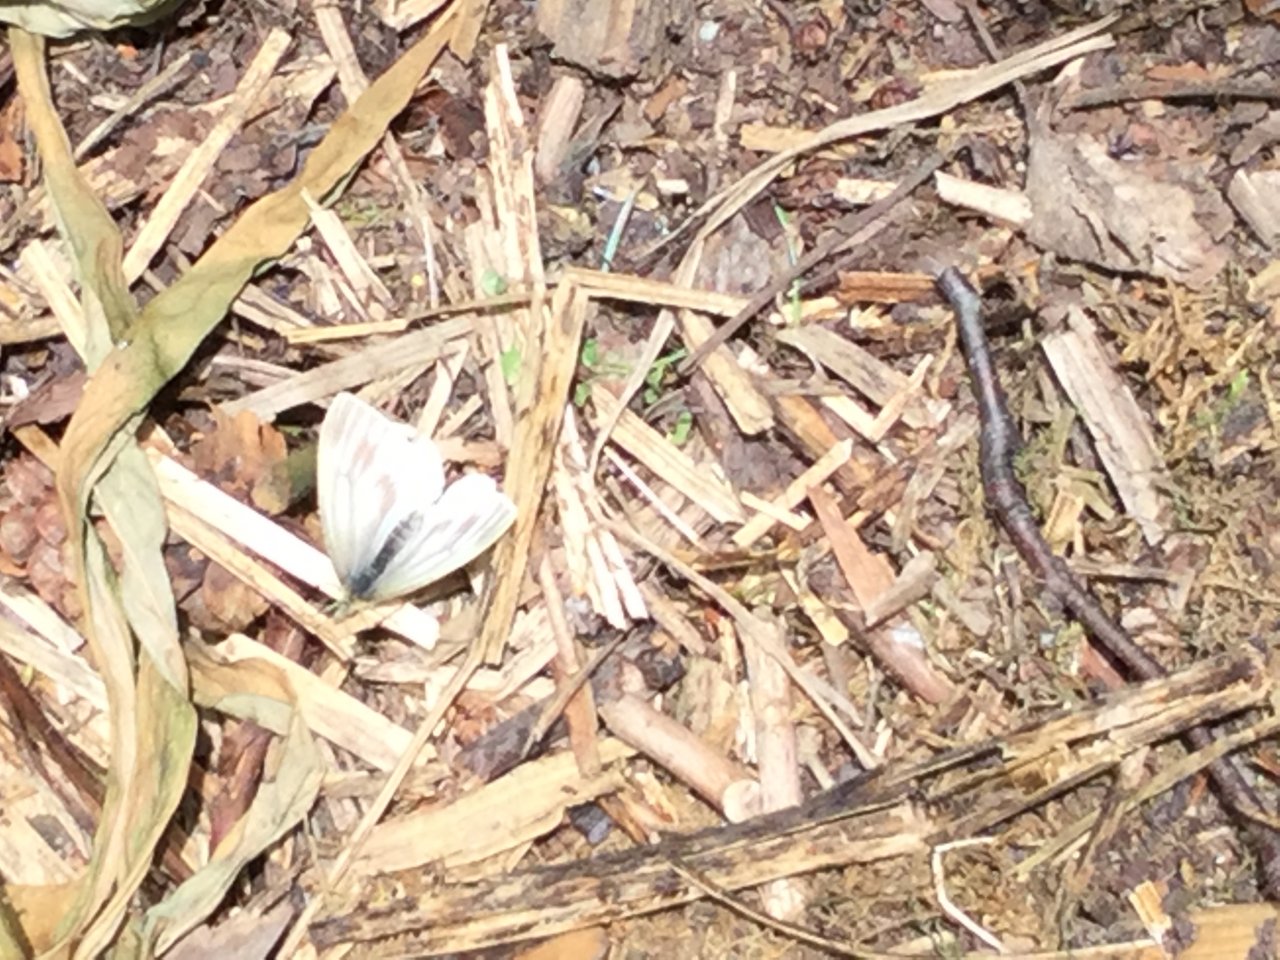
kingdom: Animalia
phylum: Arthropoda
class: Insecta
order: Lepidoptera
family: Pieridae
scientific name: Pieridae
